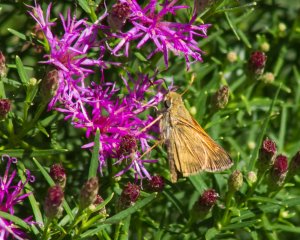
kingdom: Animalia
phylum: Arthropoda
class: Insecta
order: Lepidoptera
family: Hesperiidae
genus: Atalopedes
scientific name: Atalopedes campestris
